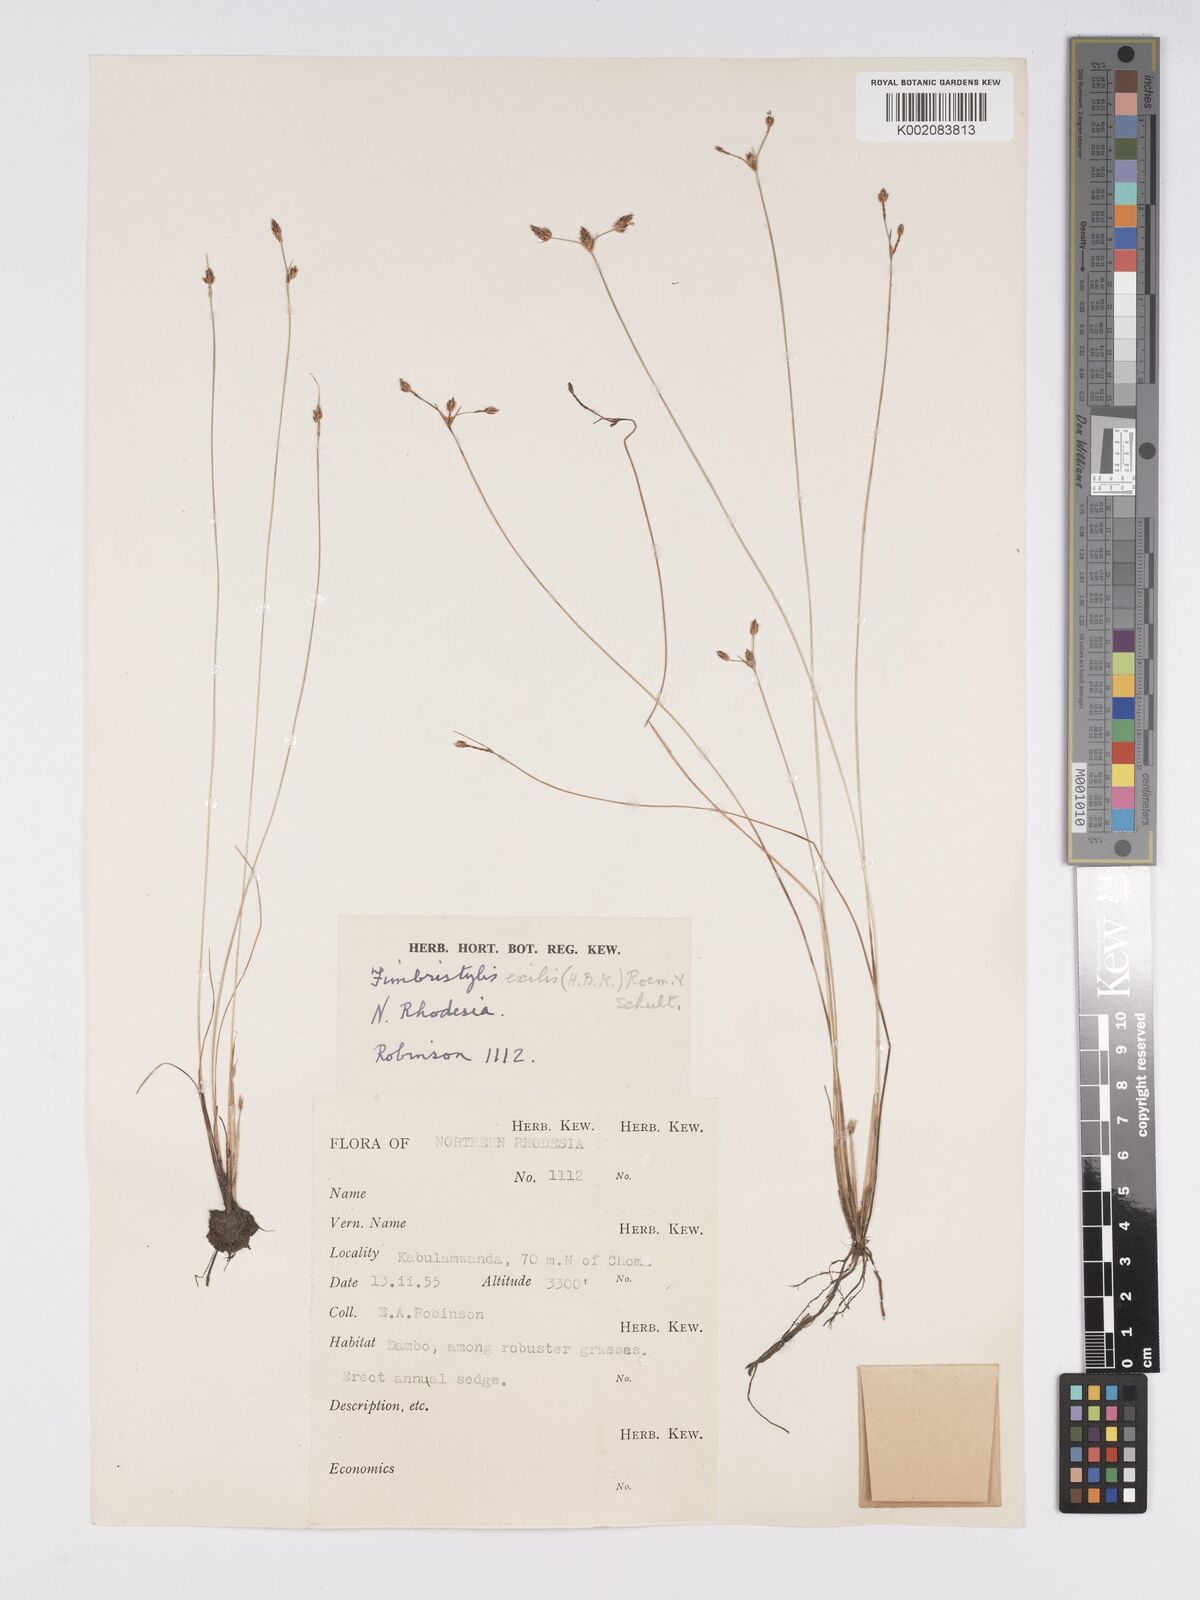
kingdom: Plantae
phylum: Tracheophyta
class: Liliopsida
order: Poales
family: Cyperaceae
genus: Bulbostylis
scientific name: Bulbostylis hispidula
